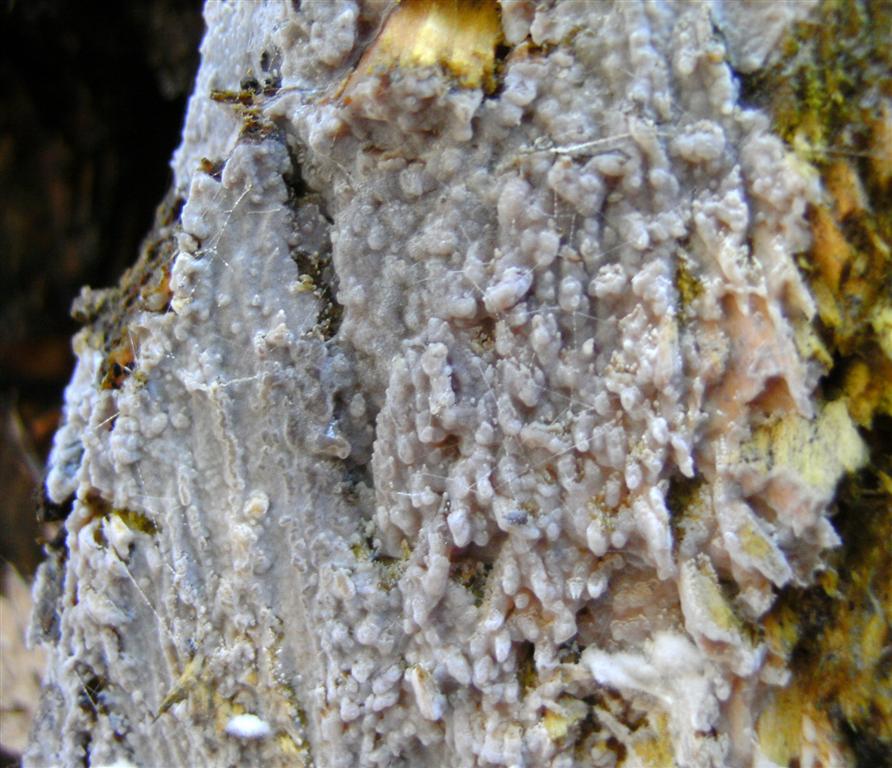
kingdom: Fungi
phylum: Basidiomycota
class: Agaricomycetes
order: Sebacinales
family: Sebacinaceae
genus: Sebacina
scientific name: Sebacina grisea
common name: blågrå bævrehinde
